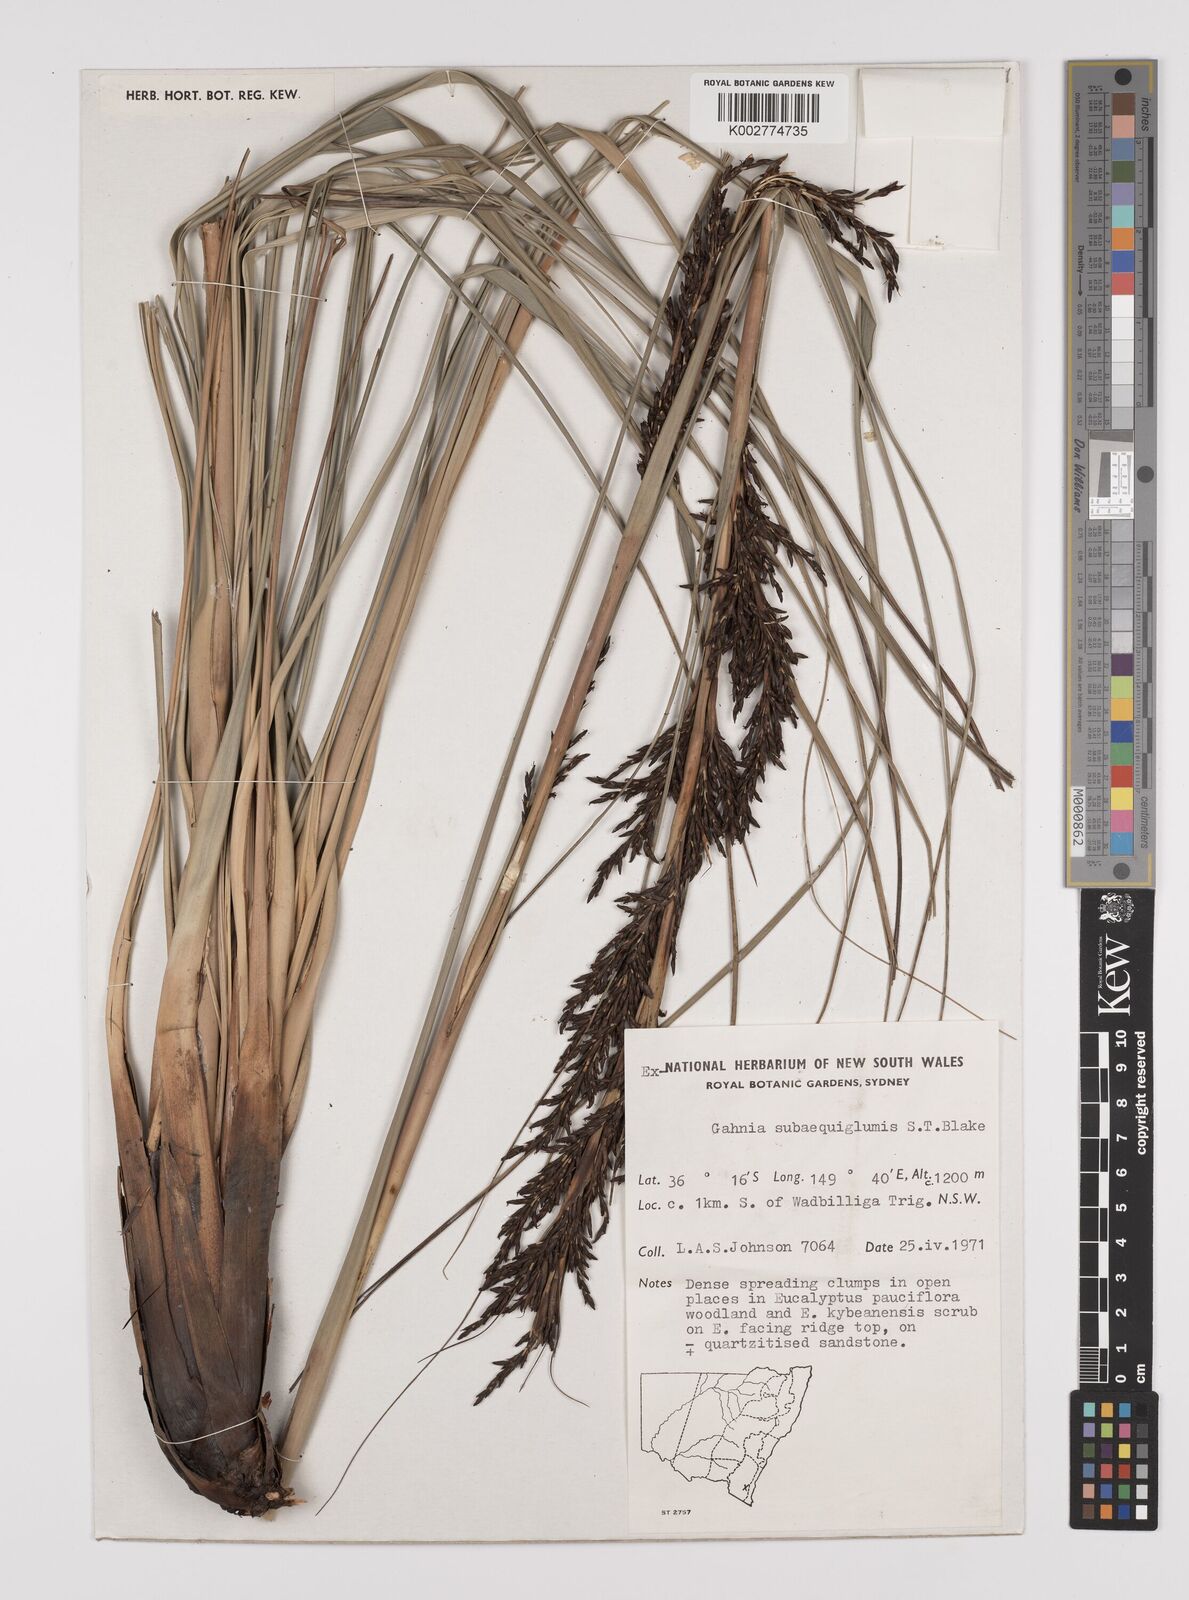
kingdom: Plantae
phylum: Tracheophyta
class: Liliopsida
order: Poales
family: Cyperaceae
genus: Gahnia
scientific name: Gahnia subaequiglumis
